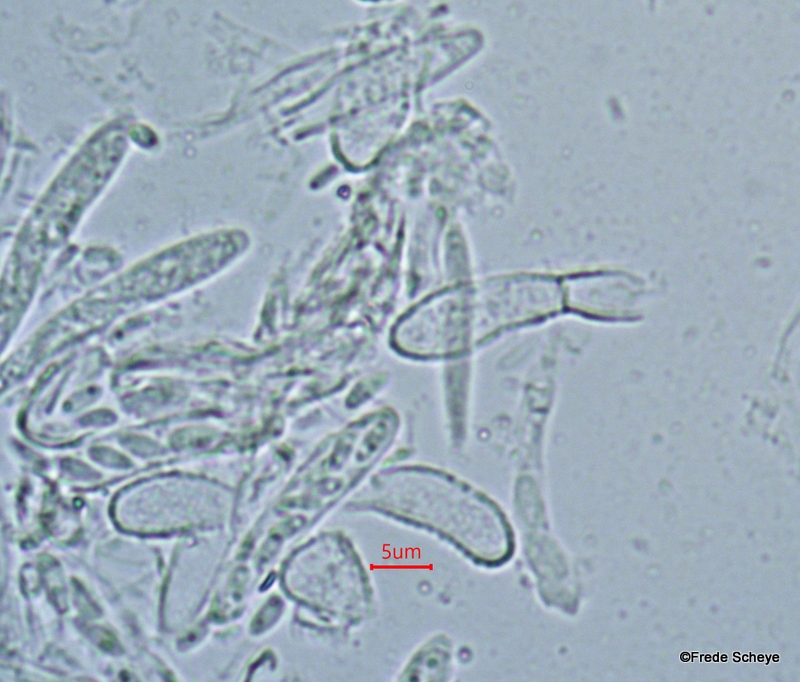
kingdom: Fungi
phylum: Ascomycota
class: Leotiomycetes
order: Helotiales
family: Hyaloscyphaceae
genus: Cistella
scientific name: Cistella acuum
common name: nåle-sirskive
